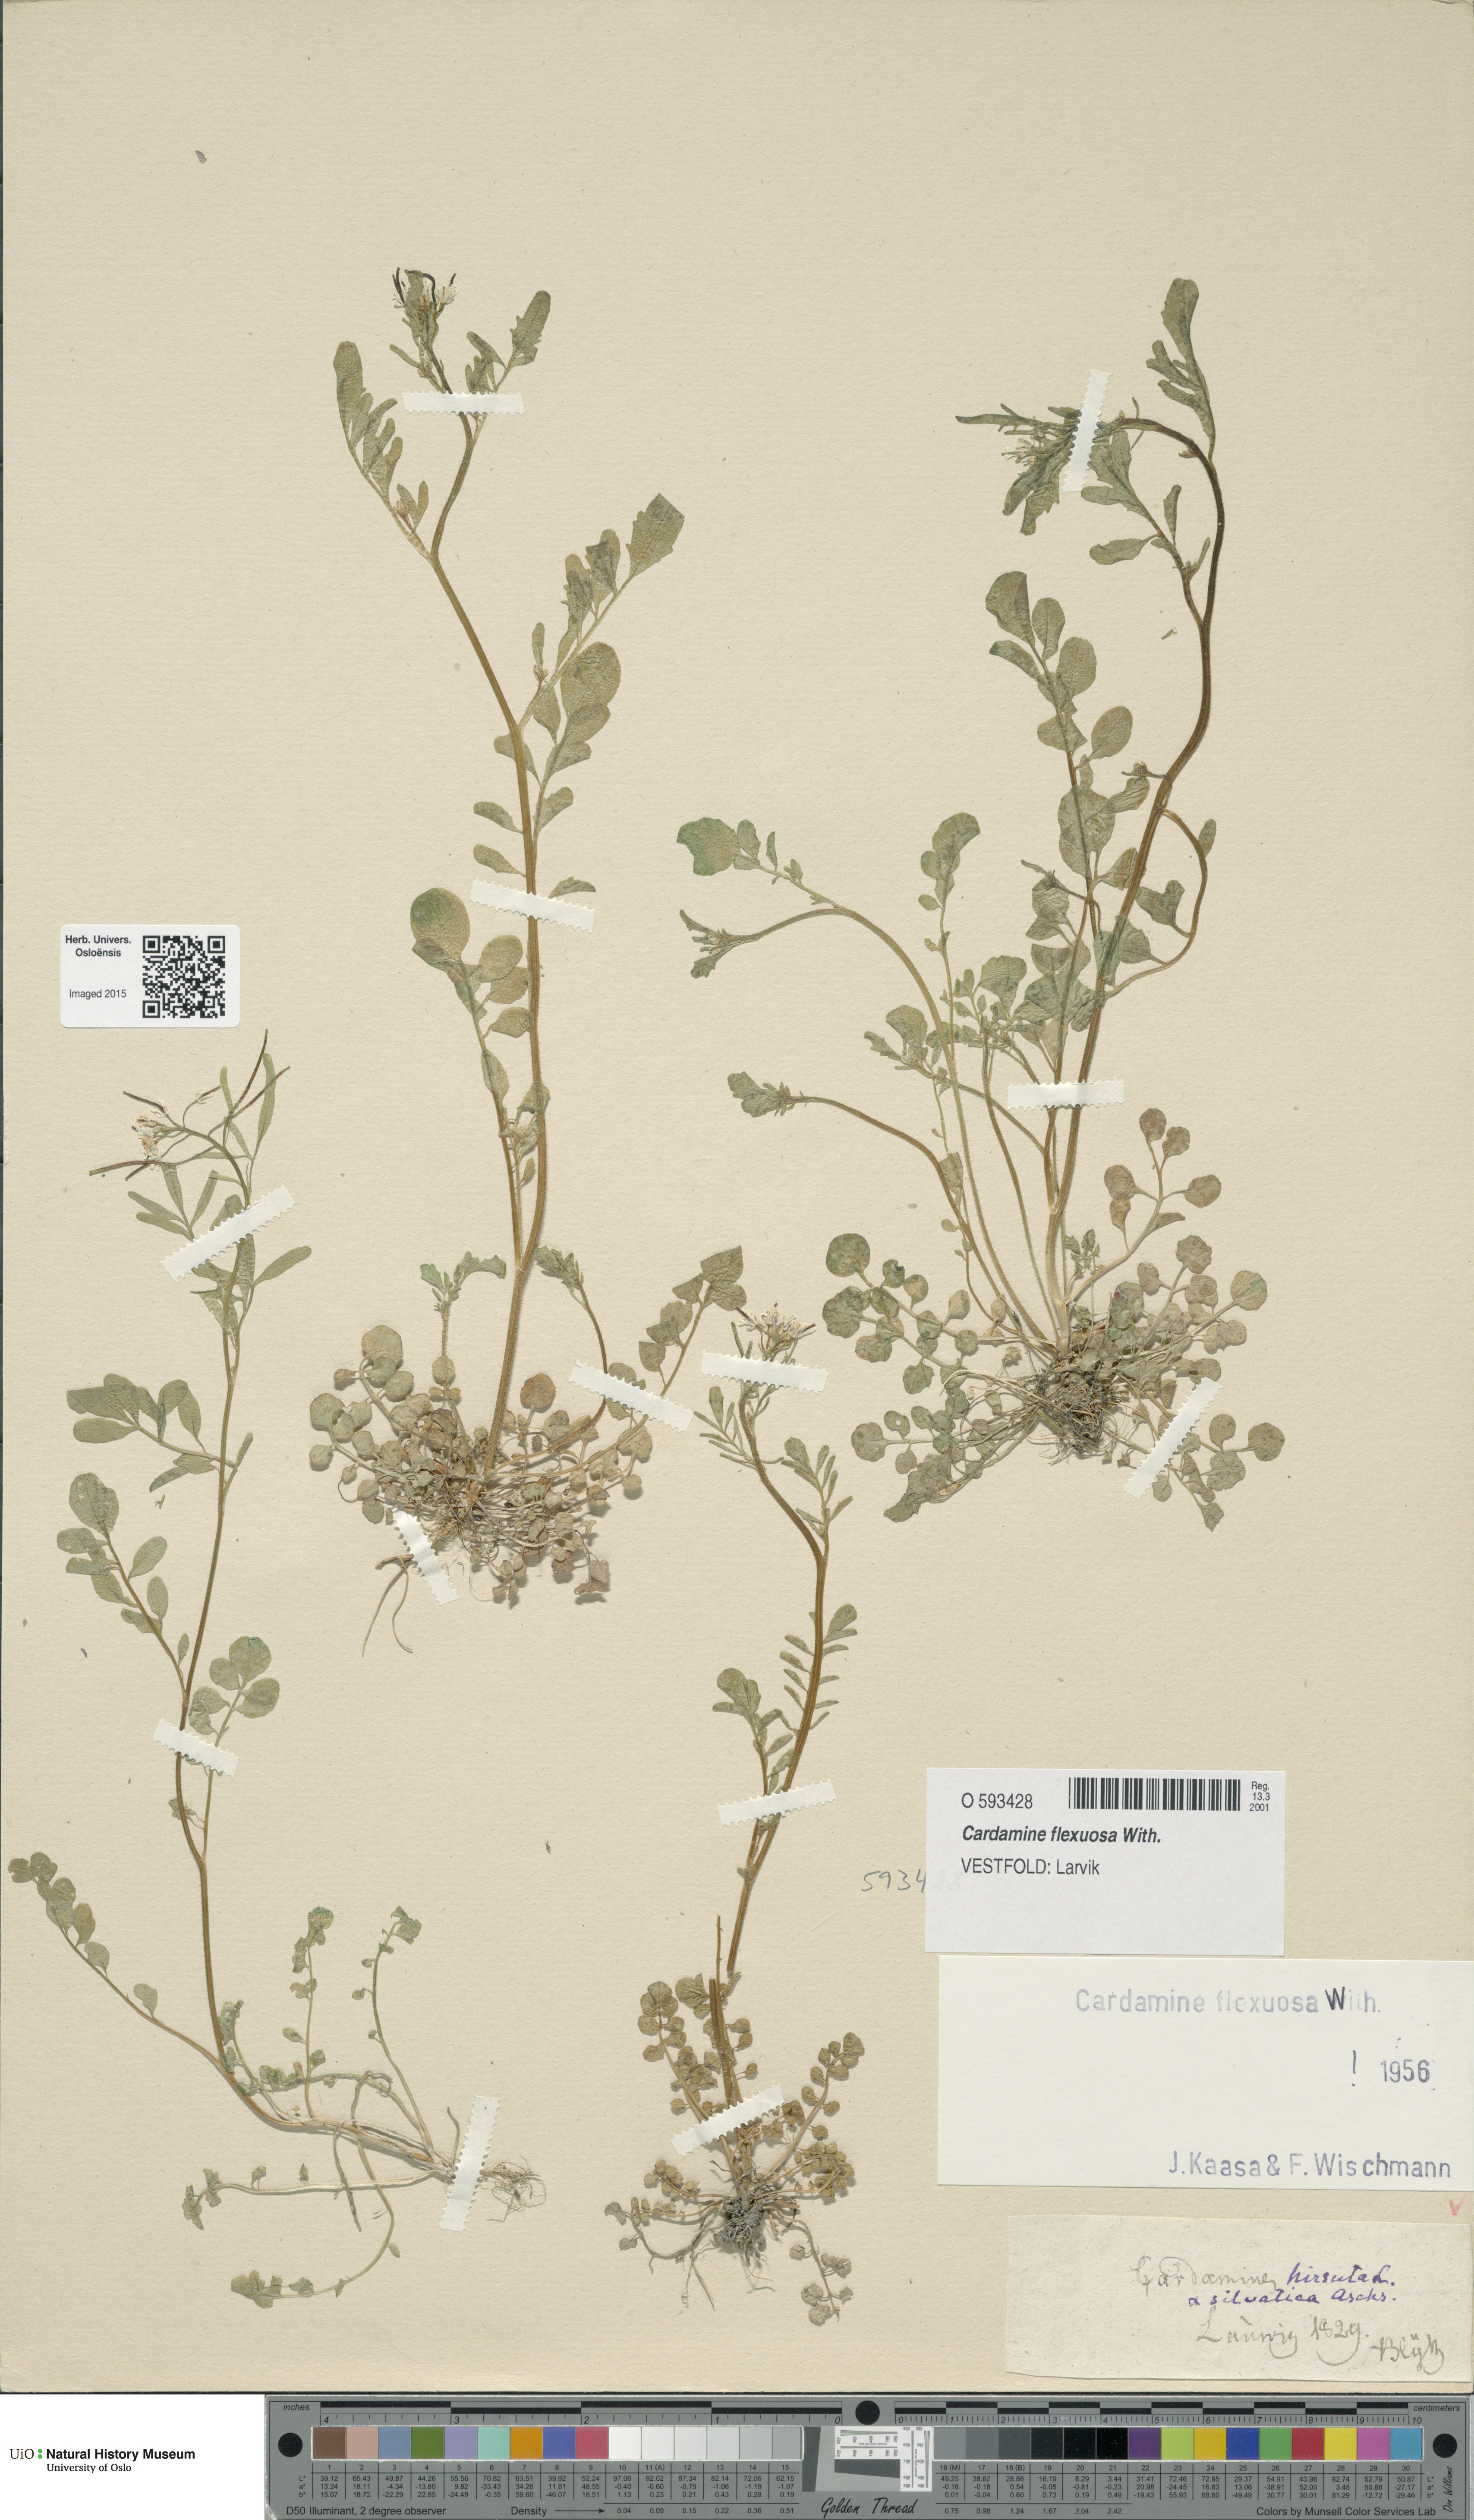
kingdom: Plantae
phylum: Tracheophyta
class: Magnoliopsida
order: Brassicales
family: Brassicaceae
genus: Cardamine
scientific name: Cardamine flexuosa
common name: Woodland bittercress
